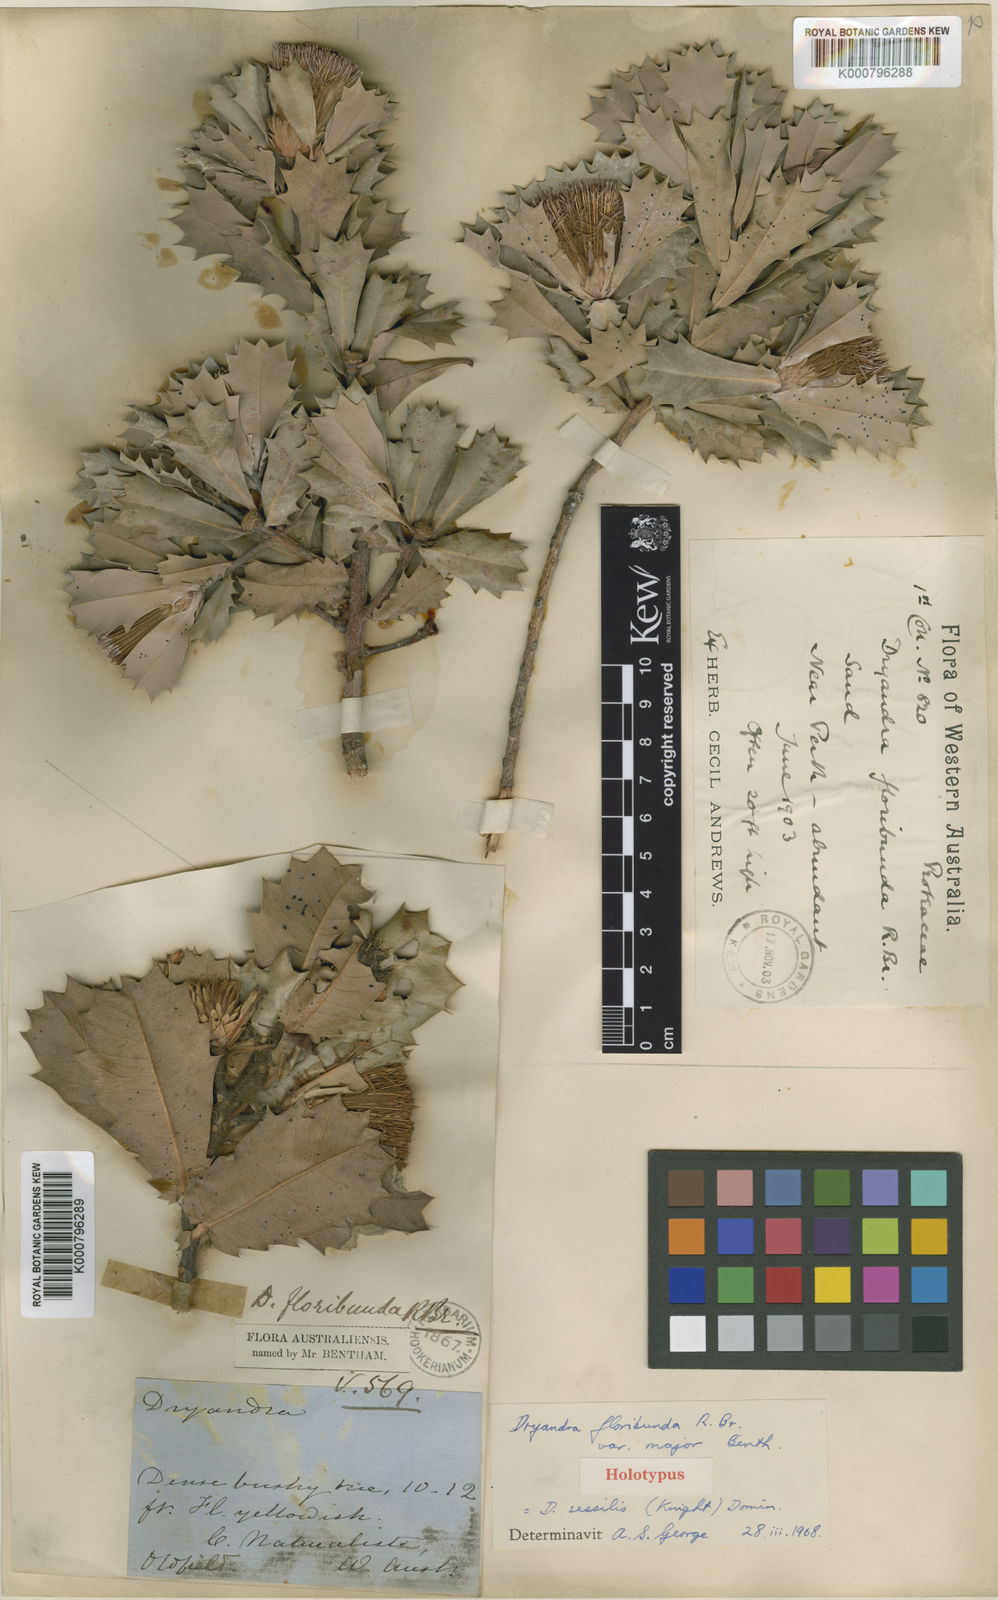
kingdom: Plantae
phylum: Tracheophyta
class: Magnoliopsida
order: Proteales
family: Proteaceae
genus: Banksia
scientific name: Banksia sessilis
